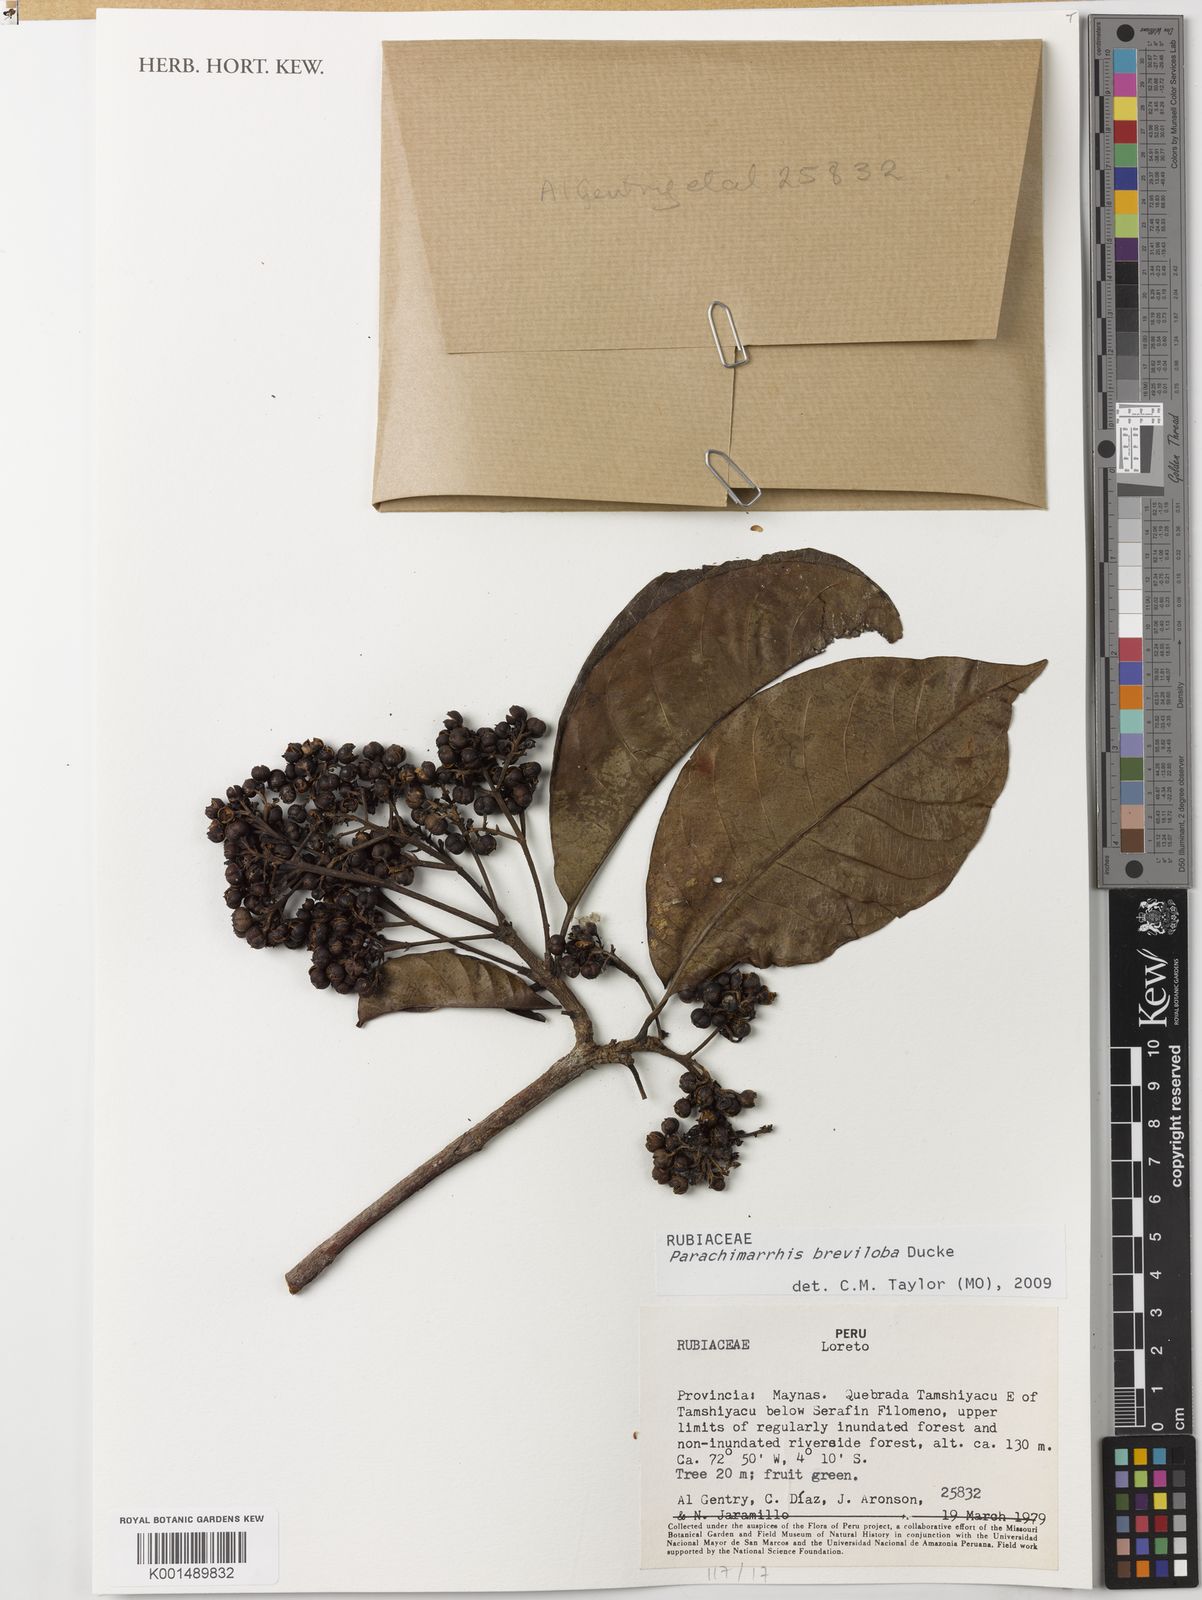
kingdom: Plantae
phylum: Tracheophyta
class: Magnoliopsida
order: Gentianales
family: Rubiaceae
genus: Parachimarrhis
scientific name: Parachimarrhis breviloba
